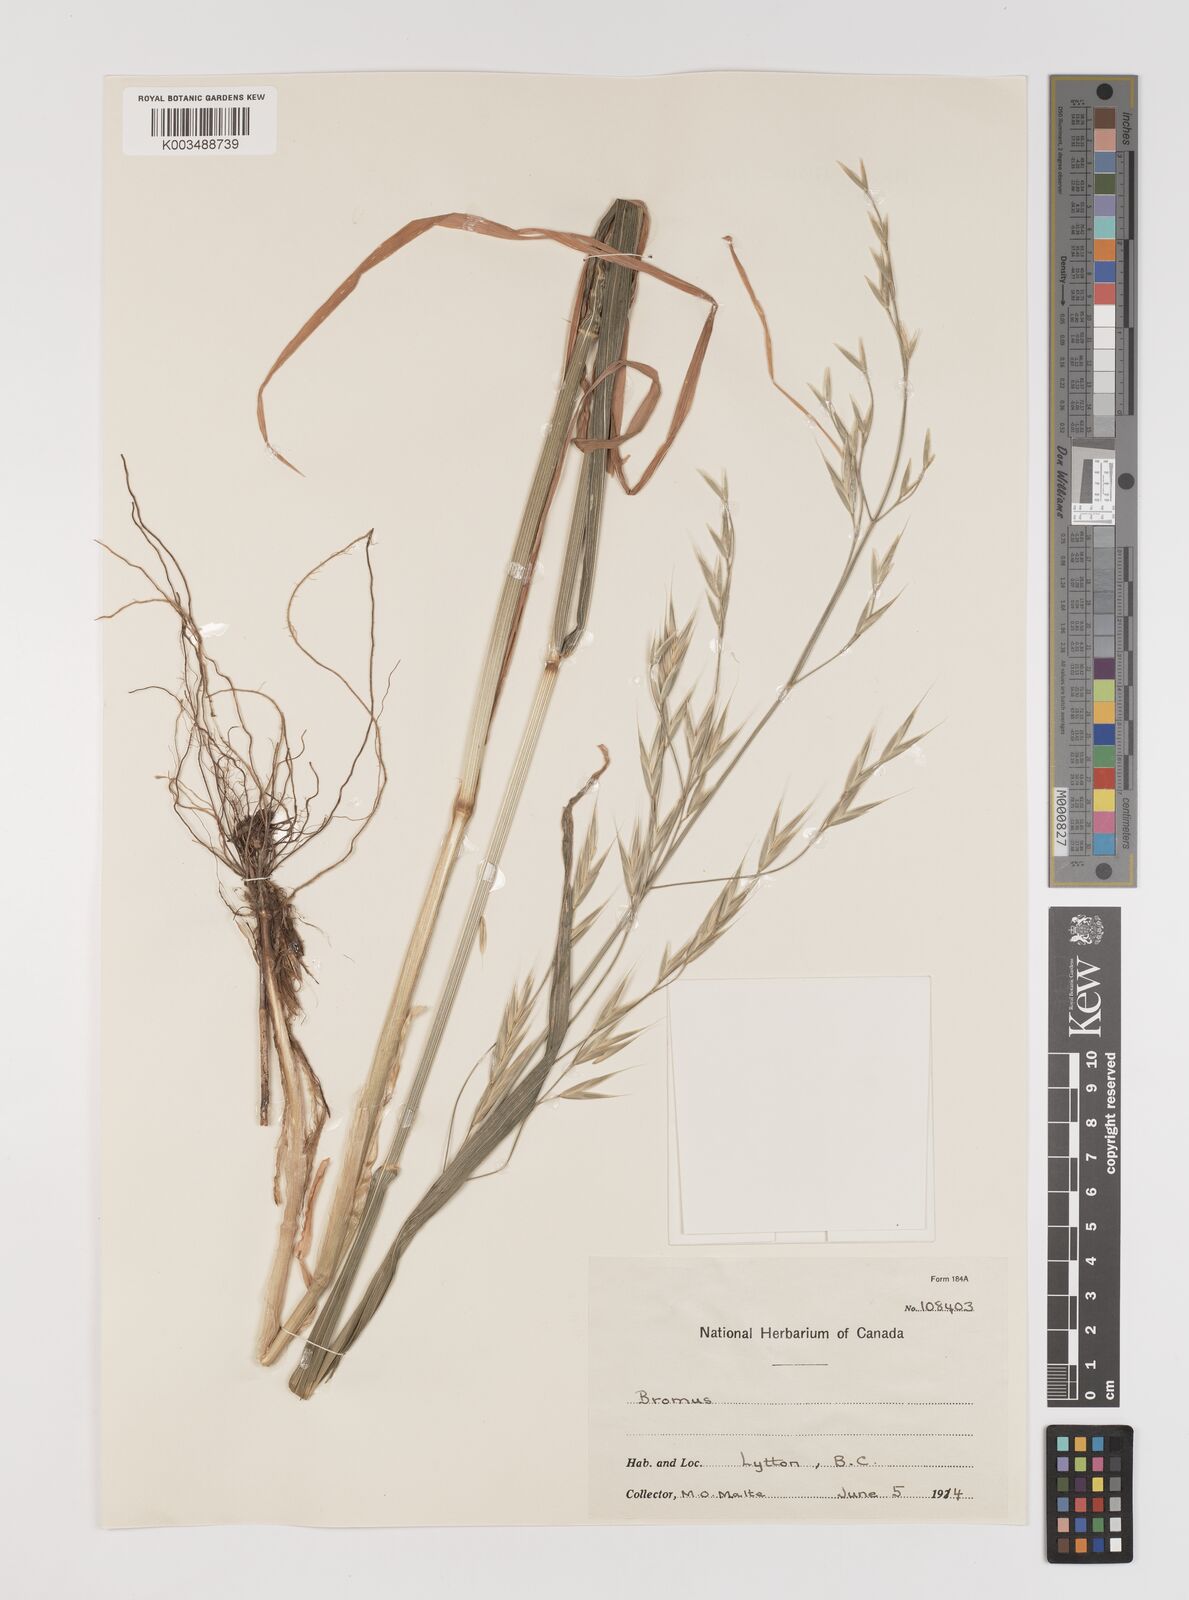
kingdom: Plantae
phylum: Tracheophyta
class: Liliopsida
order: Poales
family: Poaceae
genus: Bromus
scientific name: Bromus
